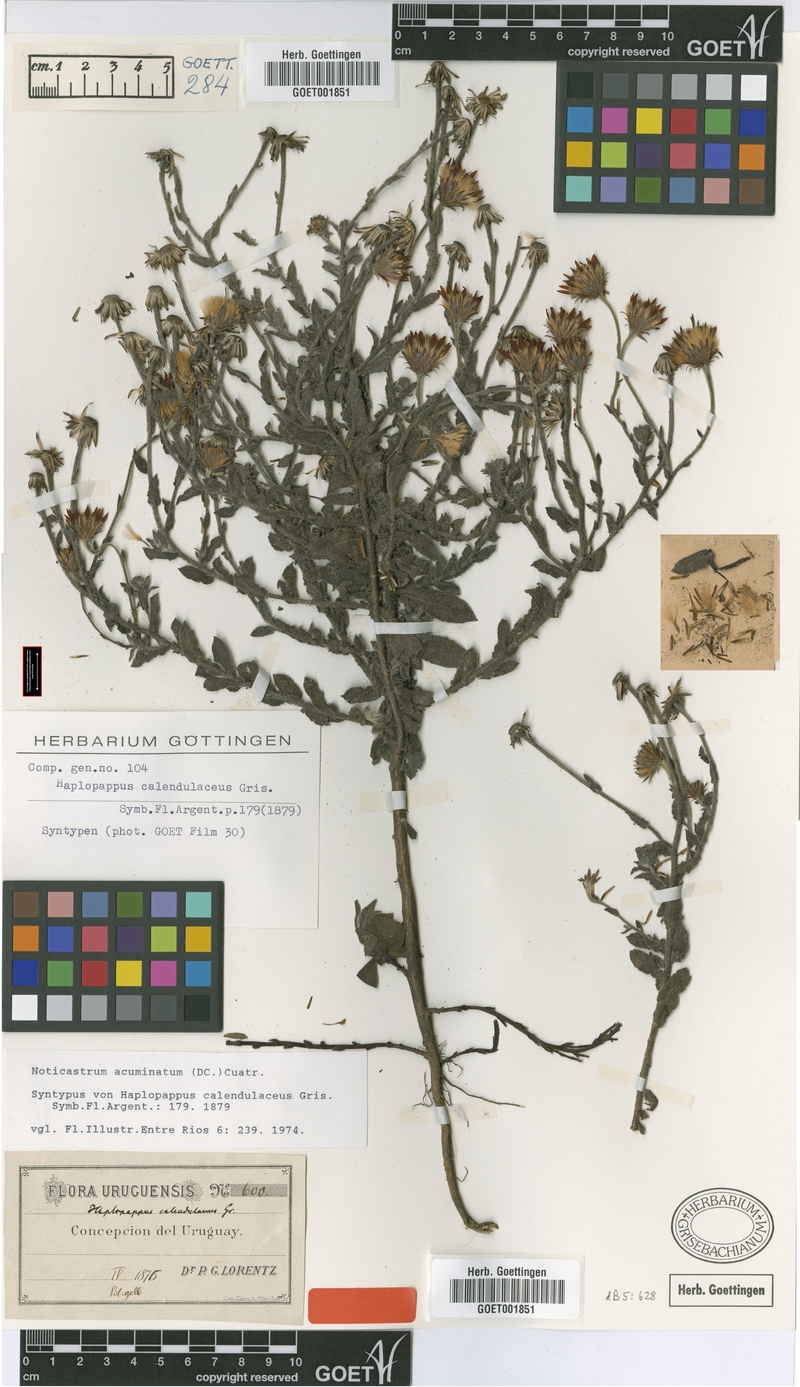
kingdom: Plantae
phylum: Tracheophyta
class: Magnoliopsida
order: Asterales
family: Asteraceae
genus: Noticastrum
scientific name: Noticastrum acuminatum
